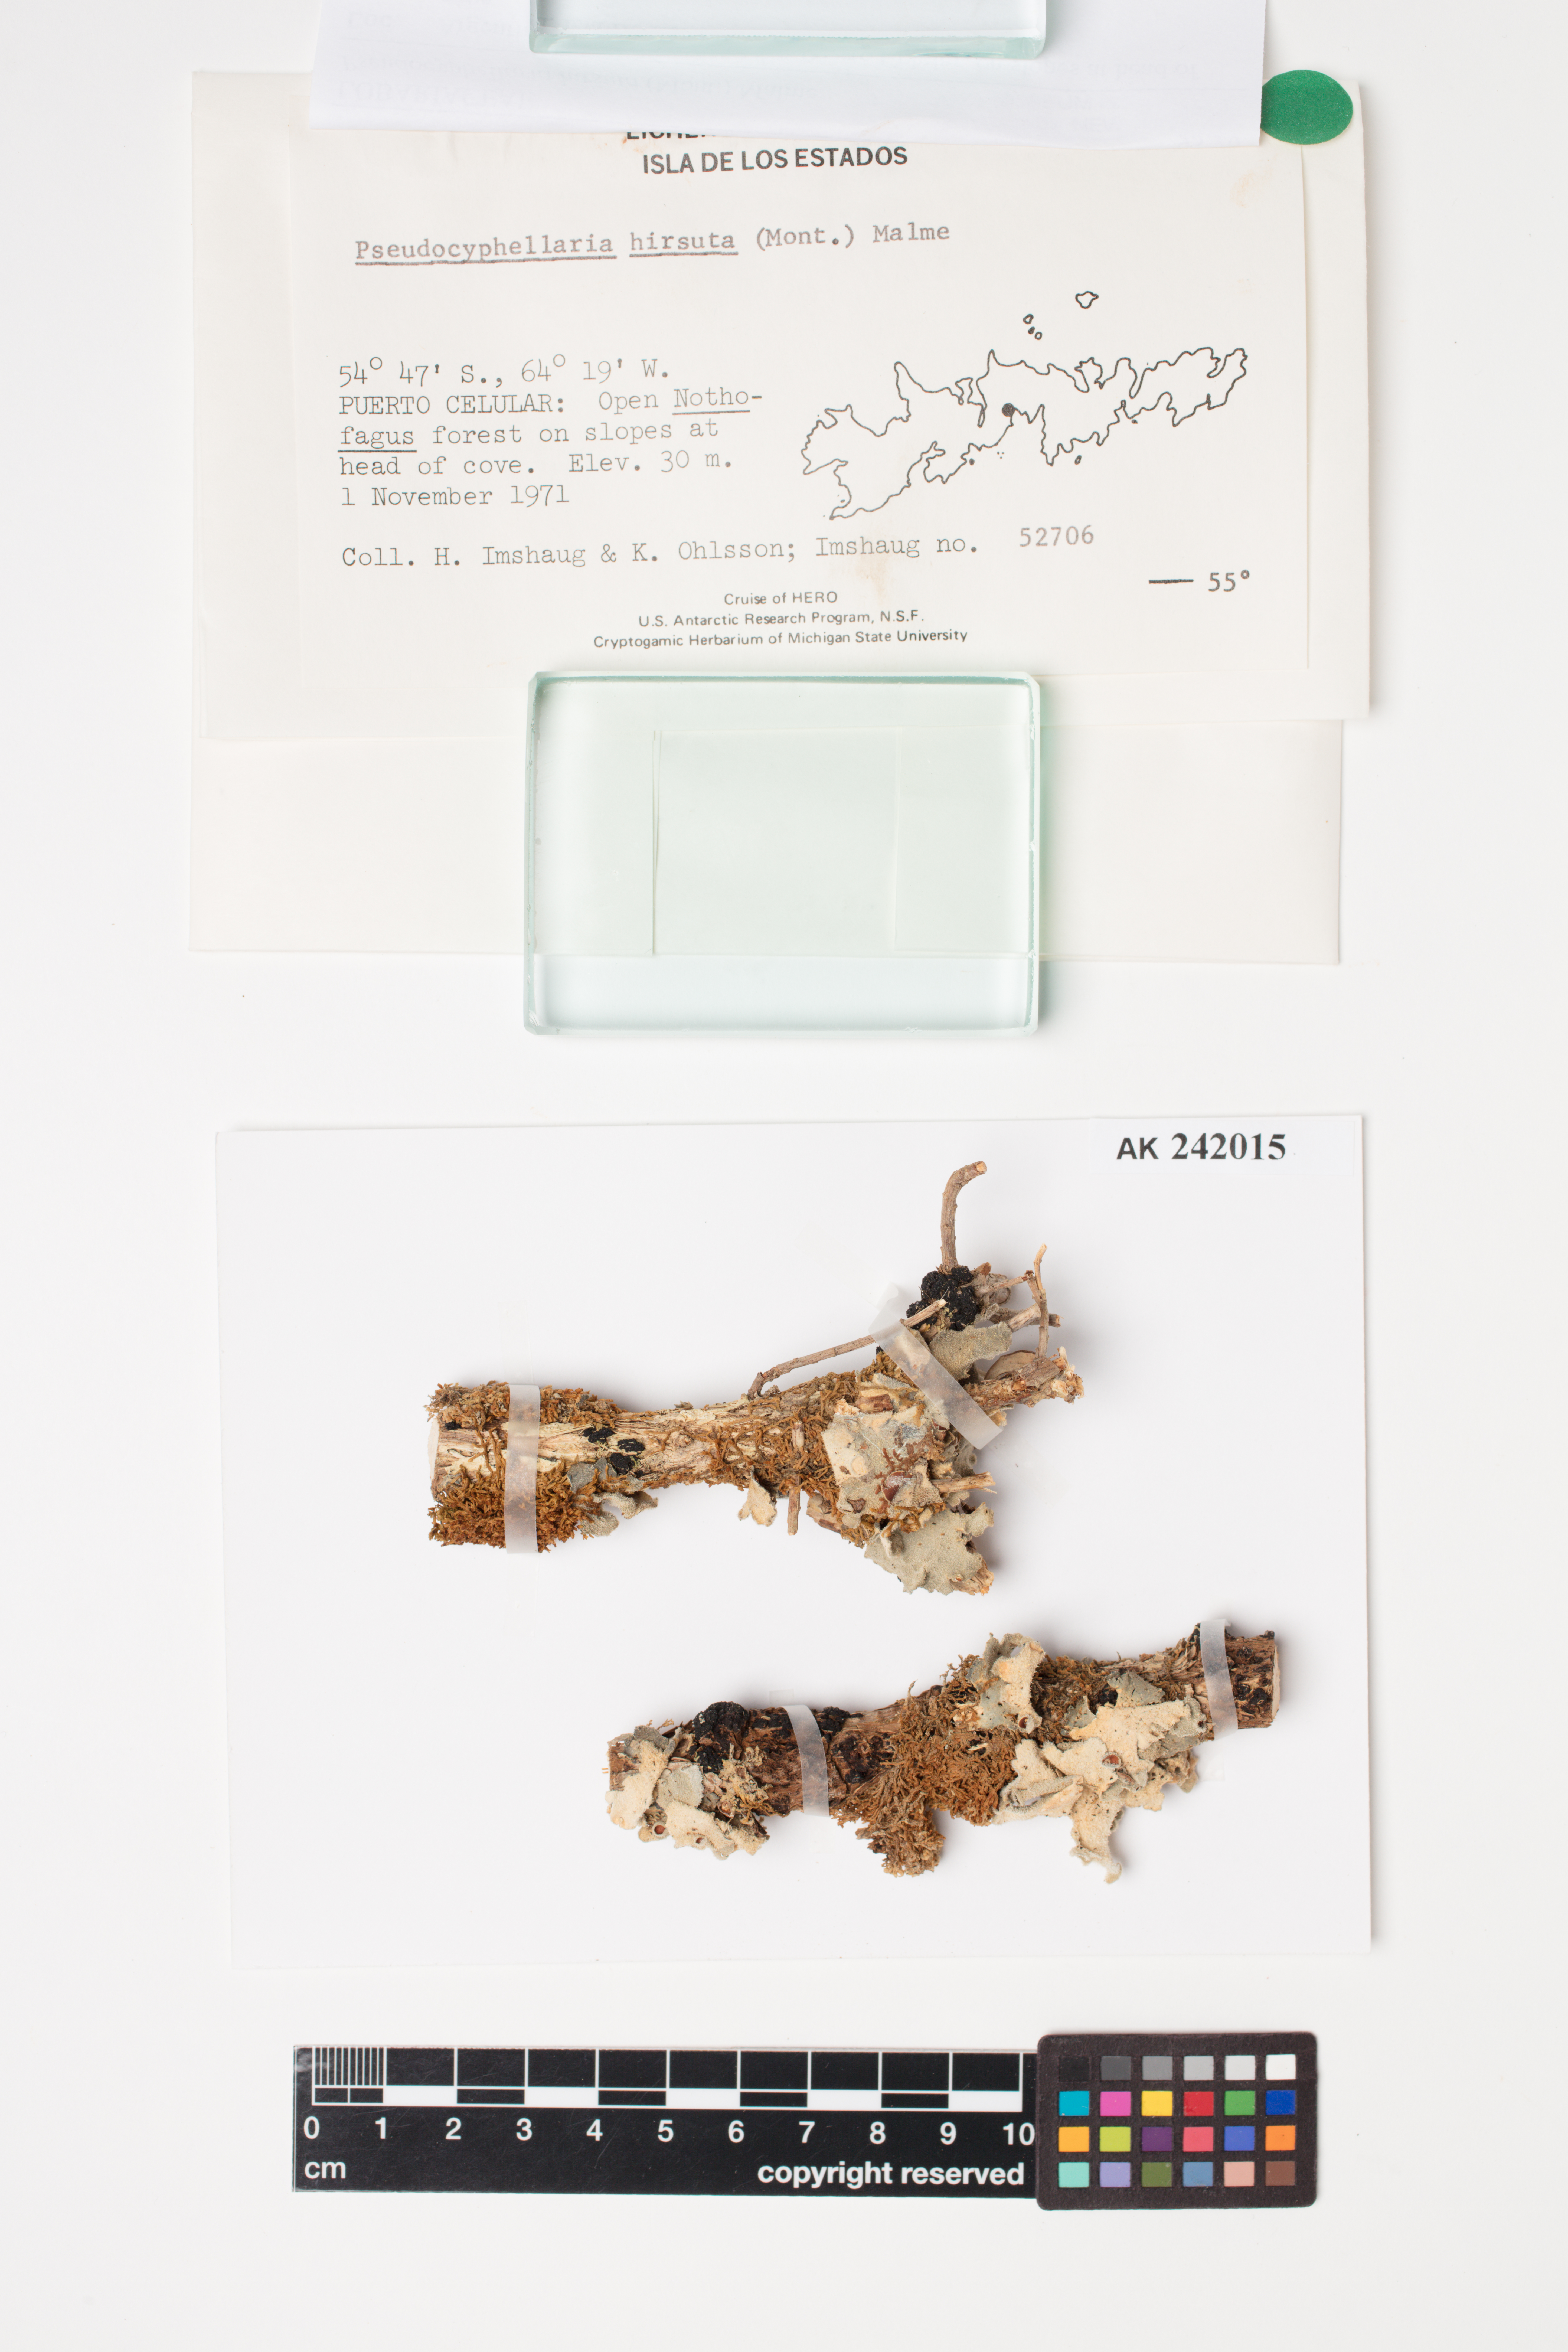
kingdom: Fungi
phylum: Ascomycota
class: Lecanoromycetes
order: Peltigerales
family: Lobariaceae
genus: Pseudocyphellaria
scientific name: Pseudocyphellaria hirsuta
